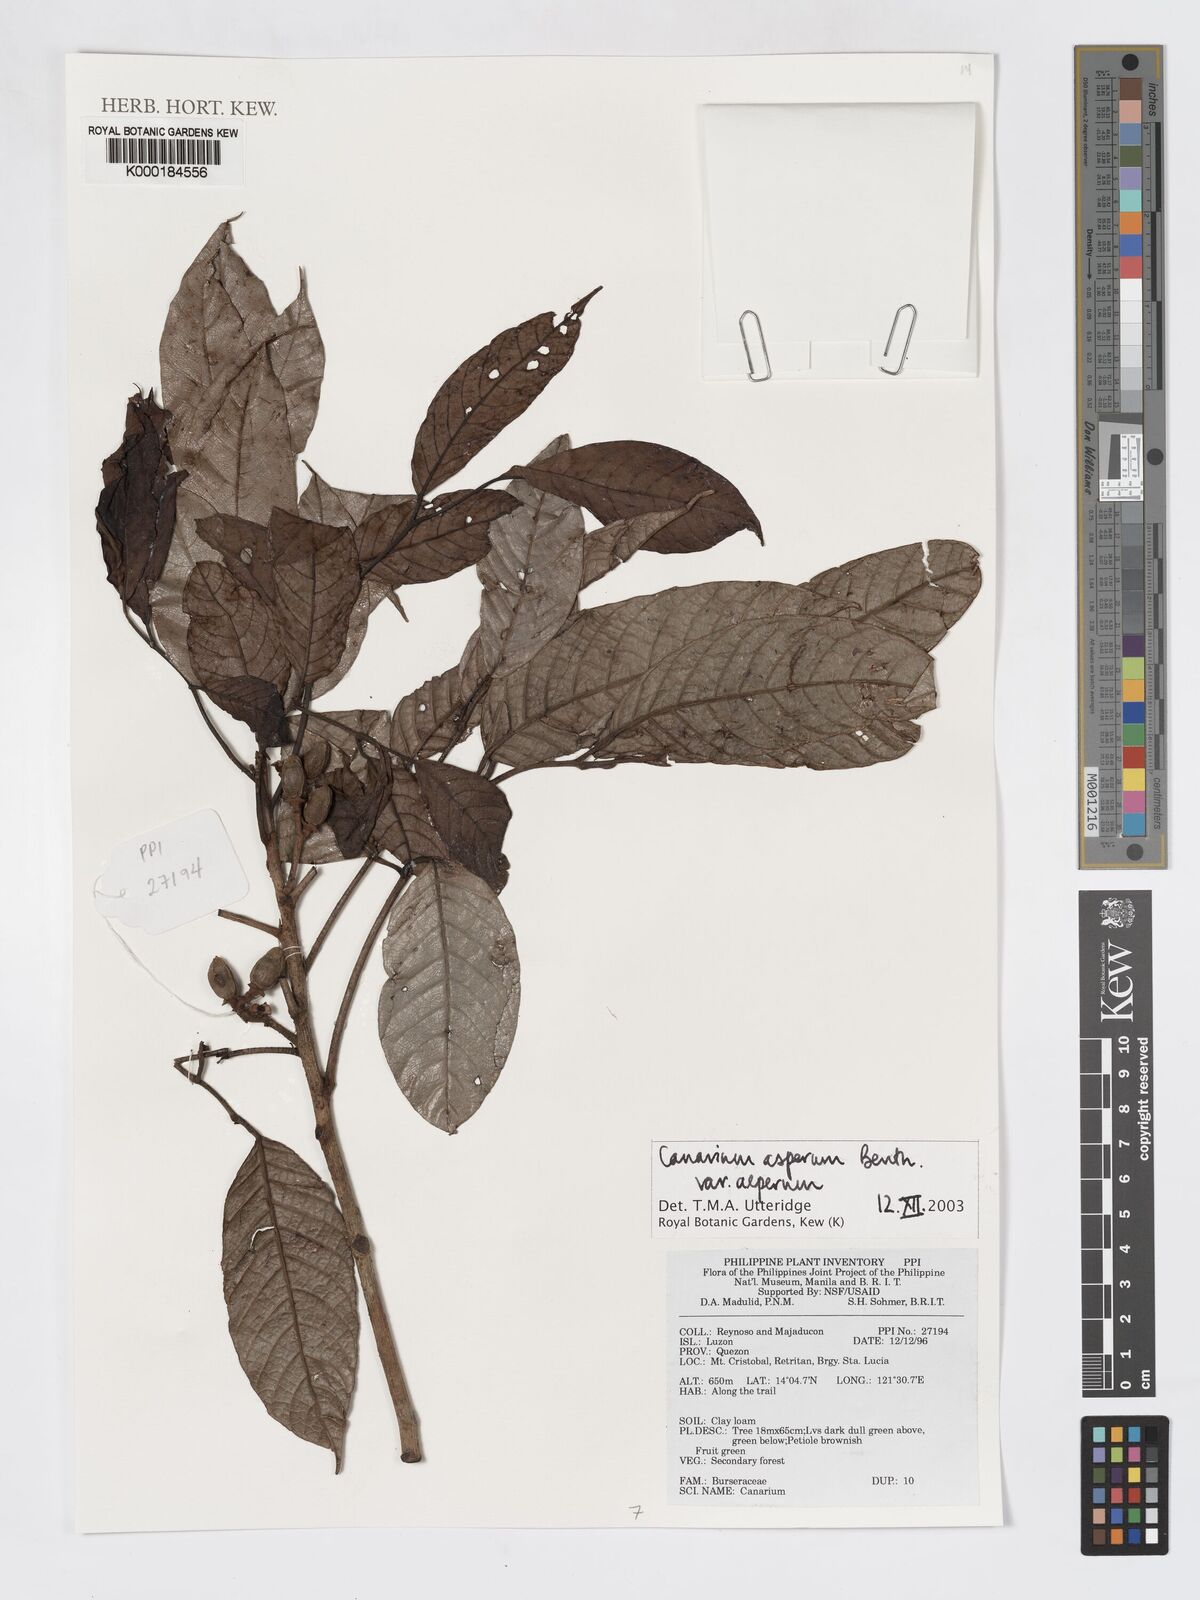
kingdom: Plantae
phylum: Tracheophyta
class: Magnoliopsida
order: Sapindales
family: Burseraceae
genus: Canarium
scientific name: Canarium asperum
